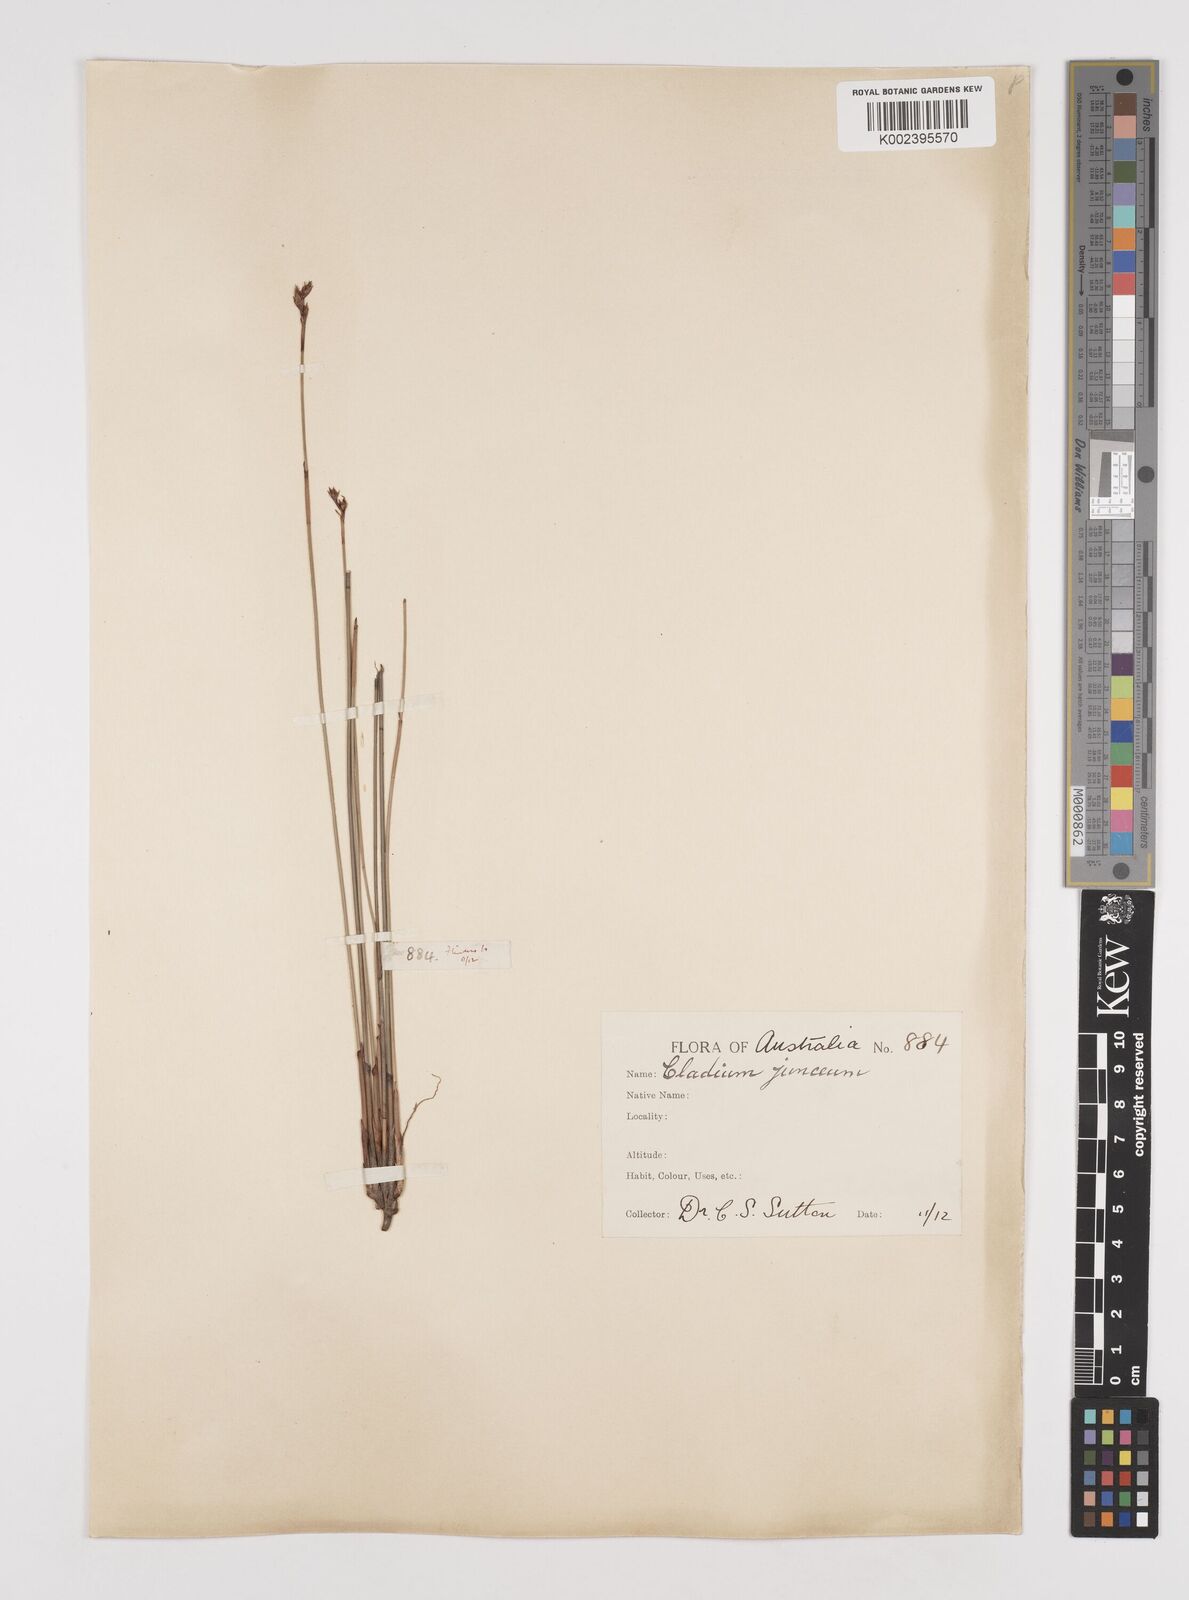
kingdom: Plantae
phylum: Tracheophyta
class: Liliopsida
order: Poales
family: Cyperaceae
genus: Machaerina
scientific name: Machaerina juncea
